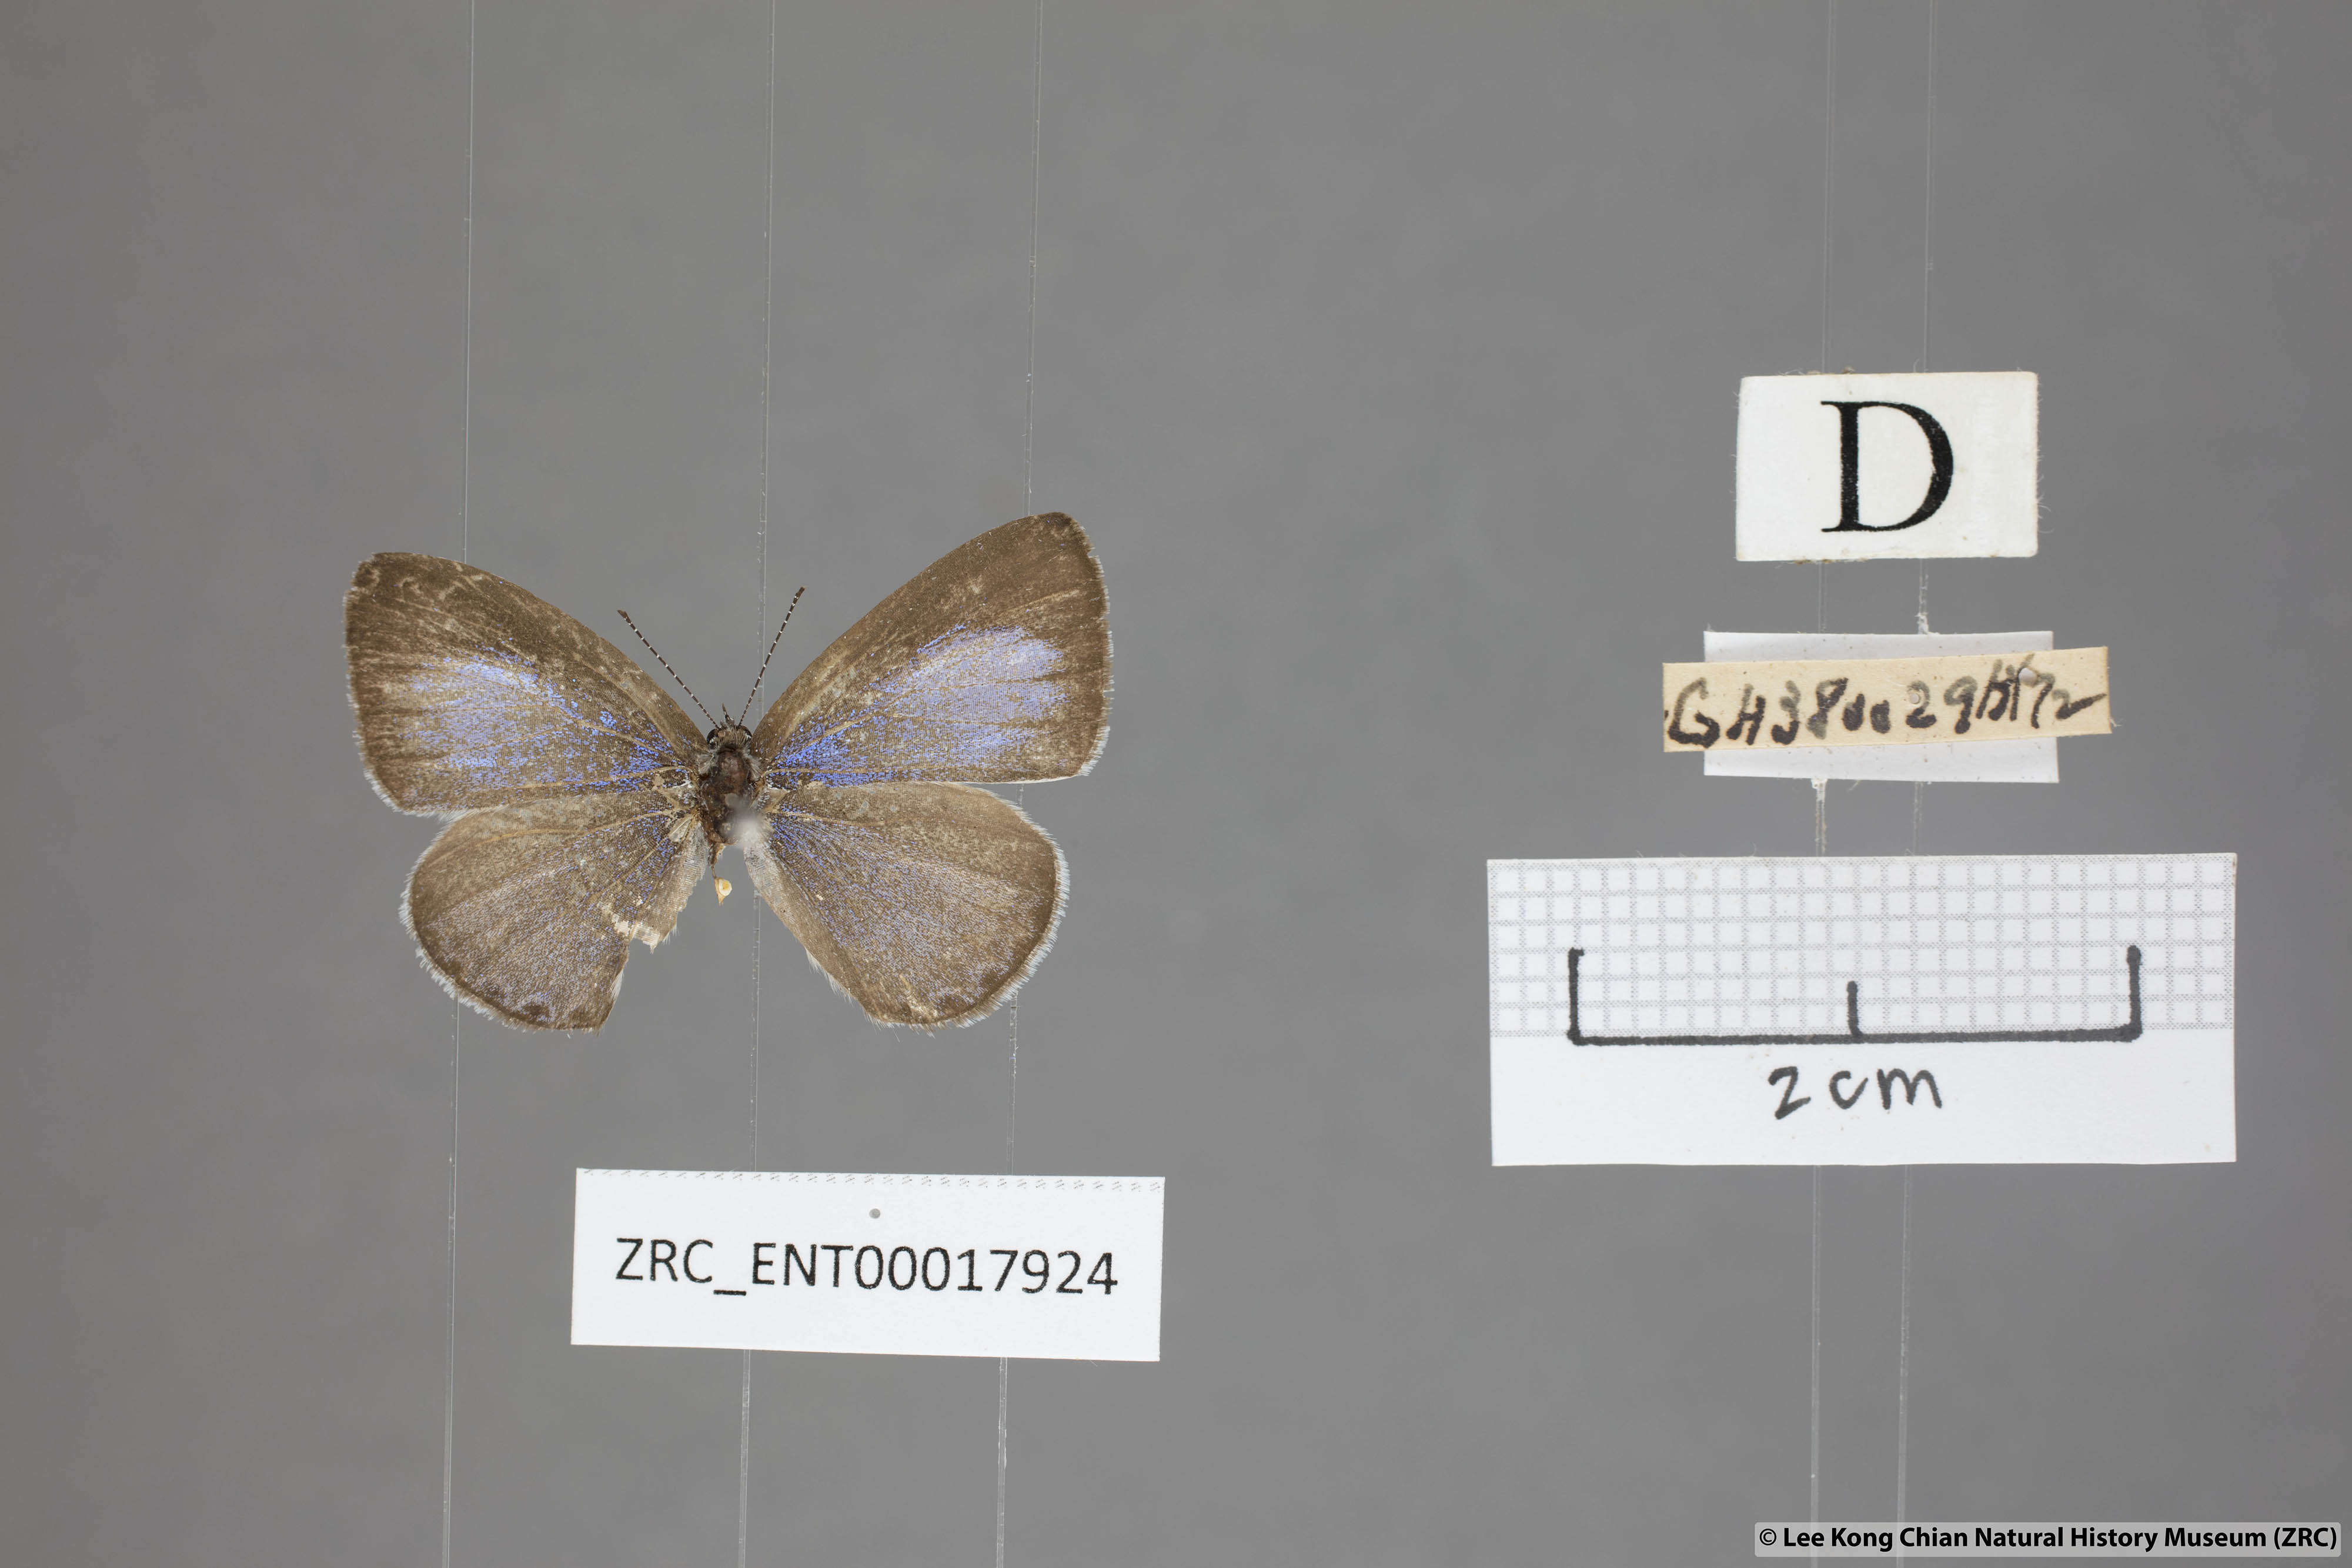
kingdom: Animalia
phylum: Arthropoda
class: Insecta
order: Lepidoptera
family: Lycaenidae
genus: Udara
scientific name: Udara
